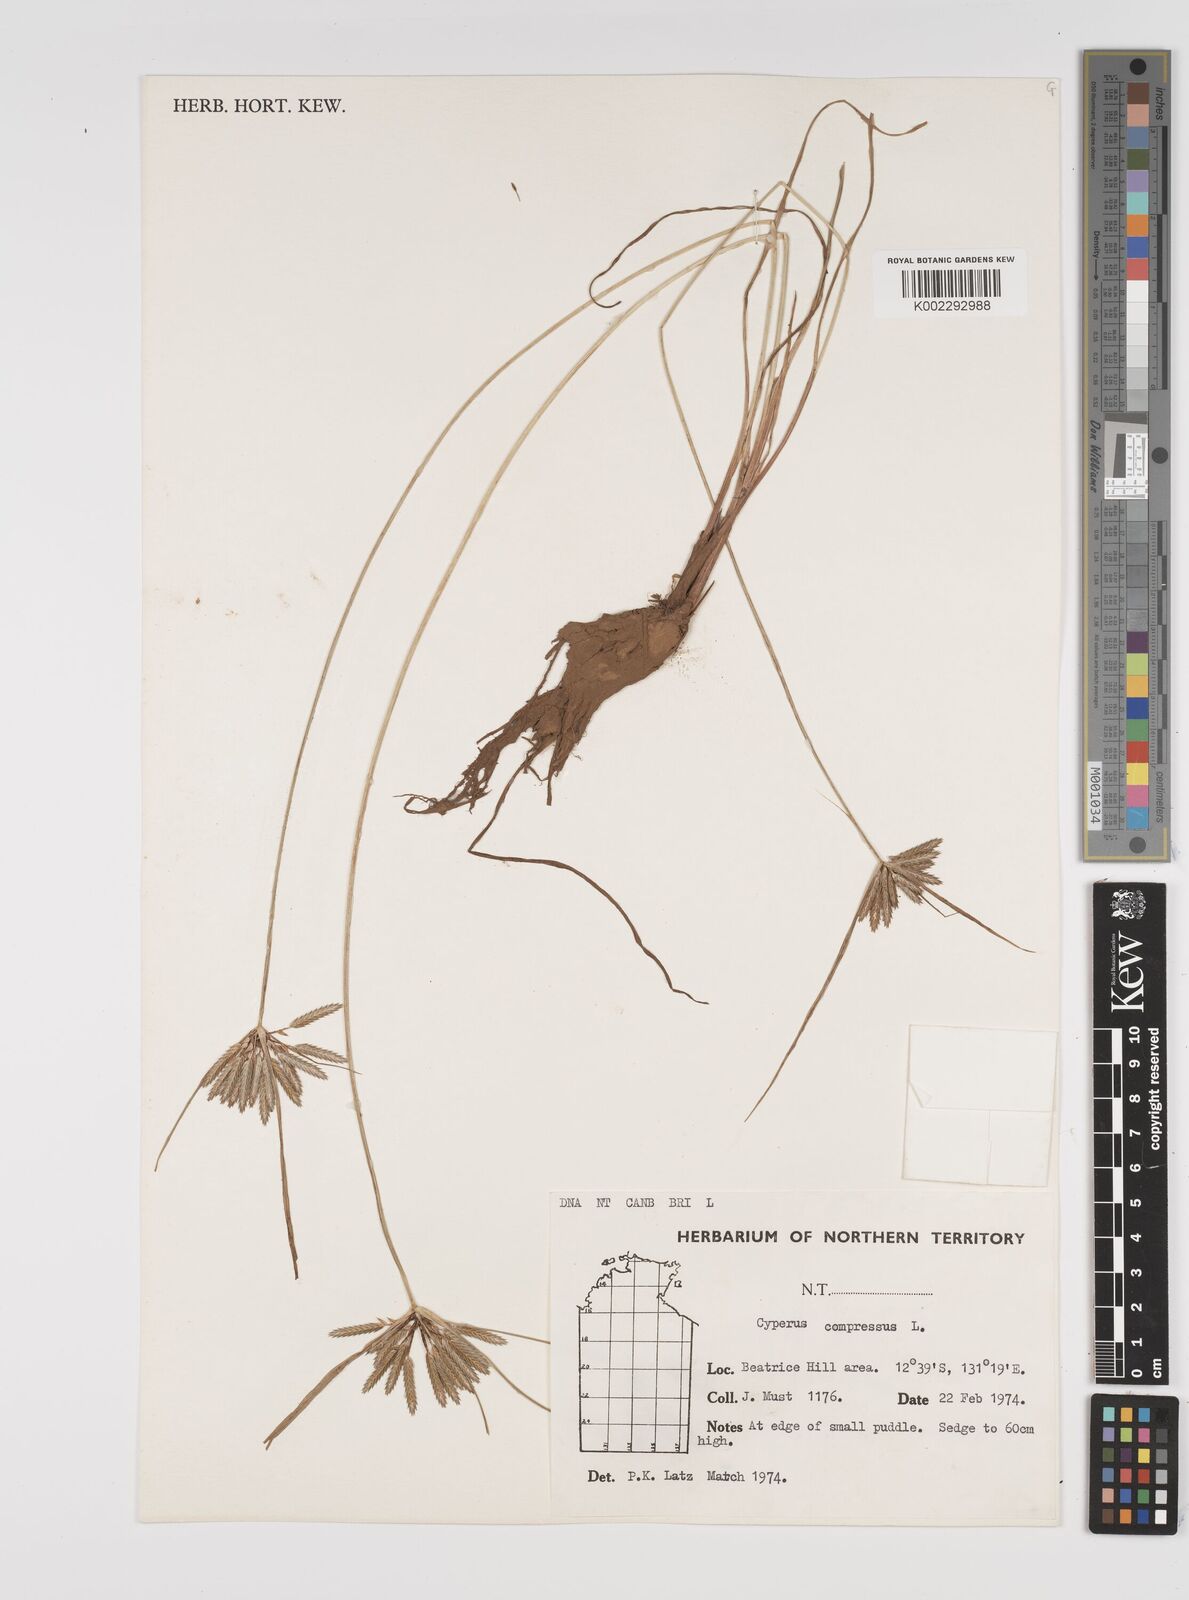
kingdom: Plantae
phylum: Tracheophyta
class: Liliopsida
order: Poales
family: Cyperaceae
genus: Cyperus
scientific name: Cyperus compressus
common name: Poorland flatsedge
